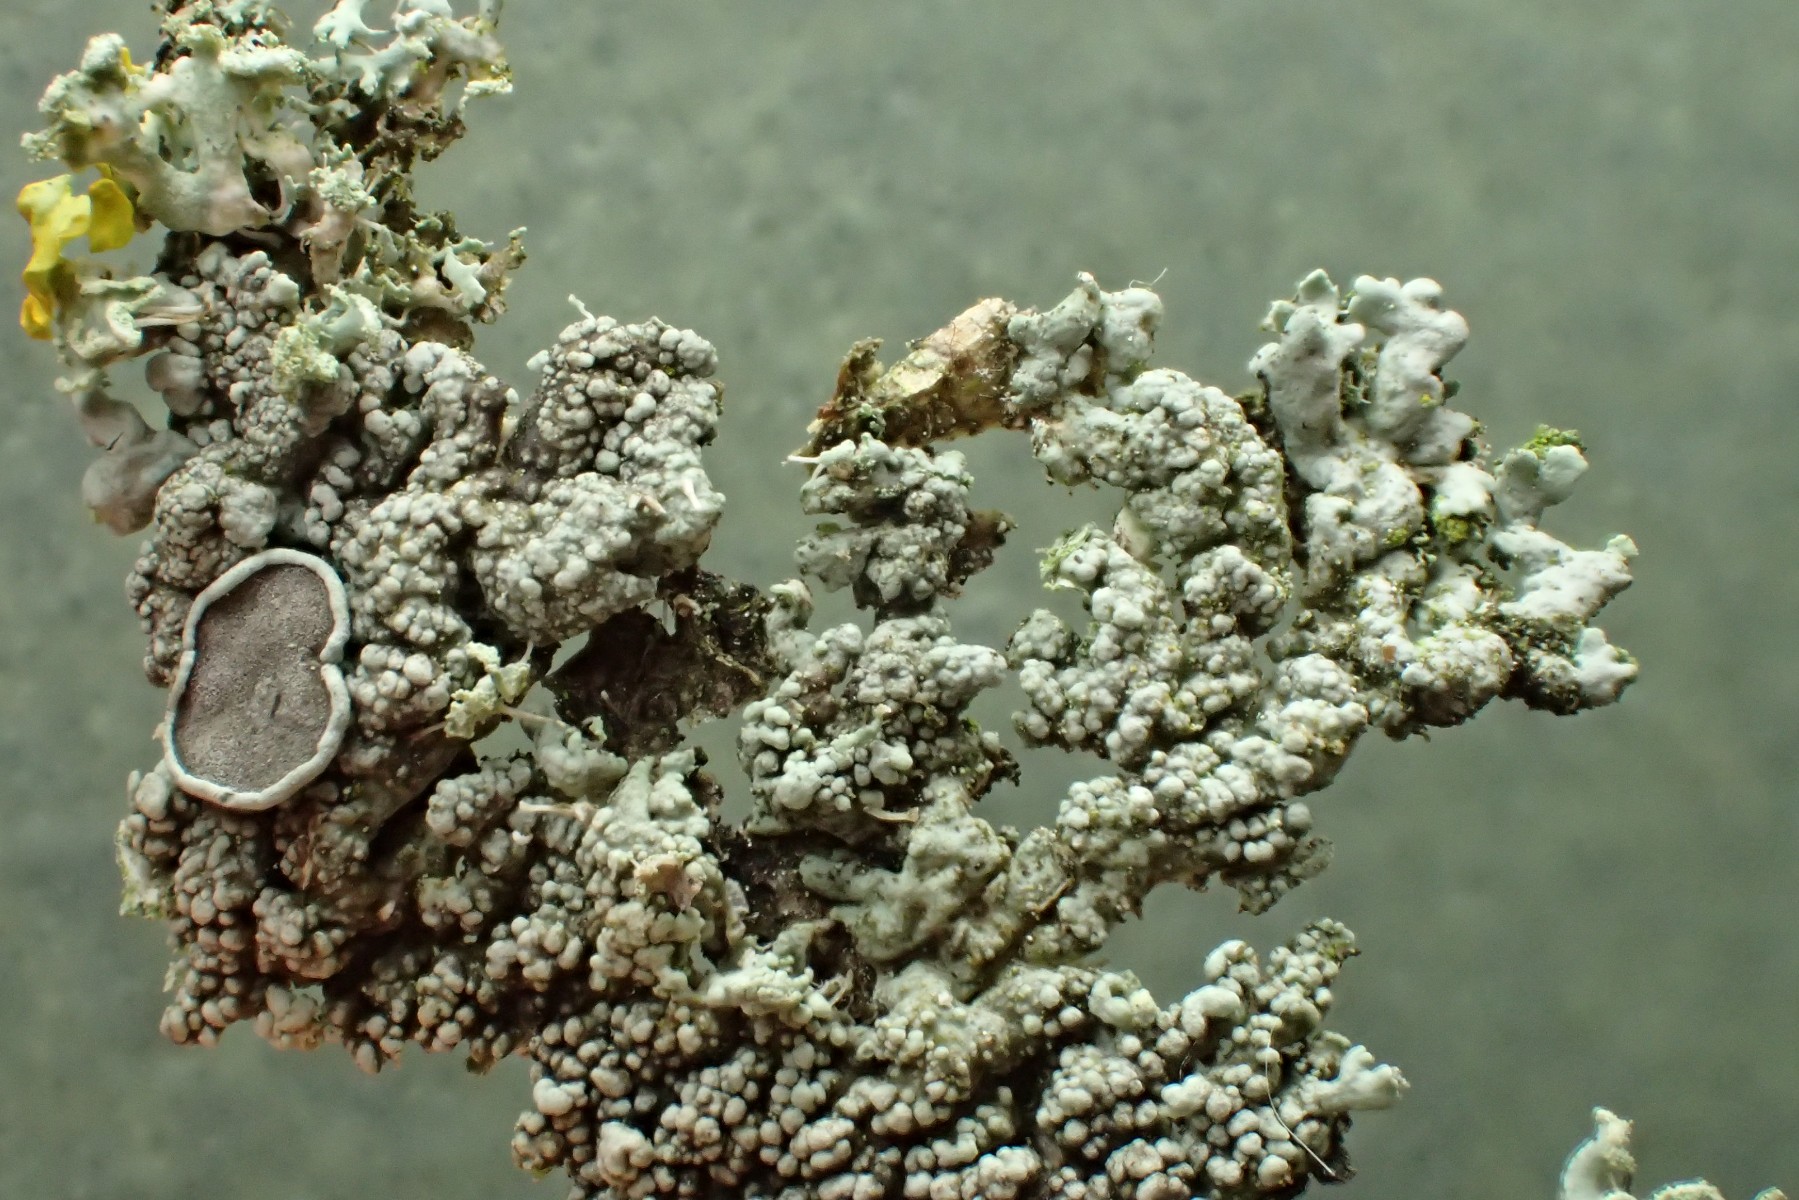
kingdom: Fungi
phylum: Ascomycota
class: Lecanoromycetes
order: Caliciales
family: Physciaceae
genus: Physcia
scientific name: Physcia stellaris
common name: stjerneformet rosetlav
